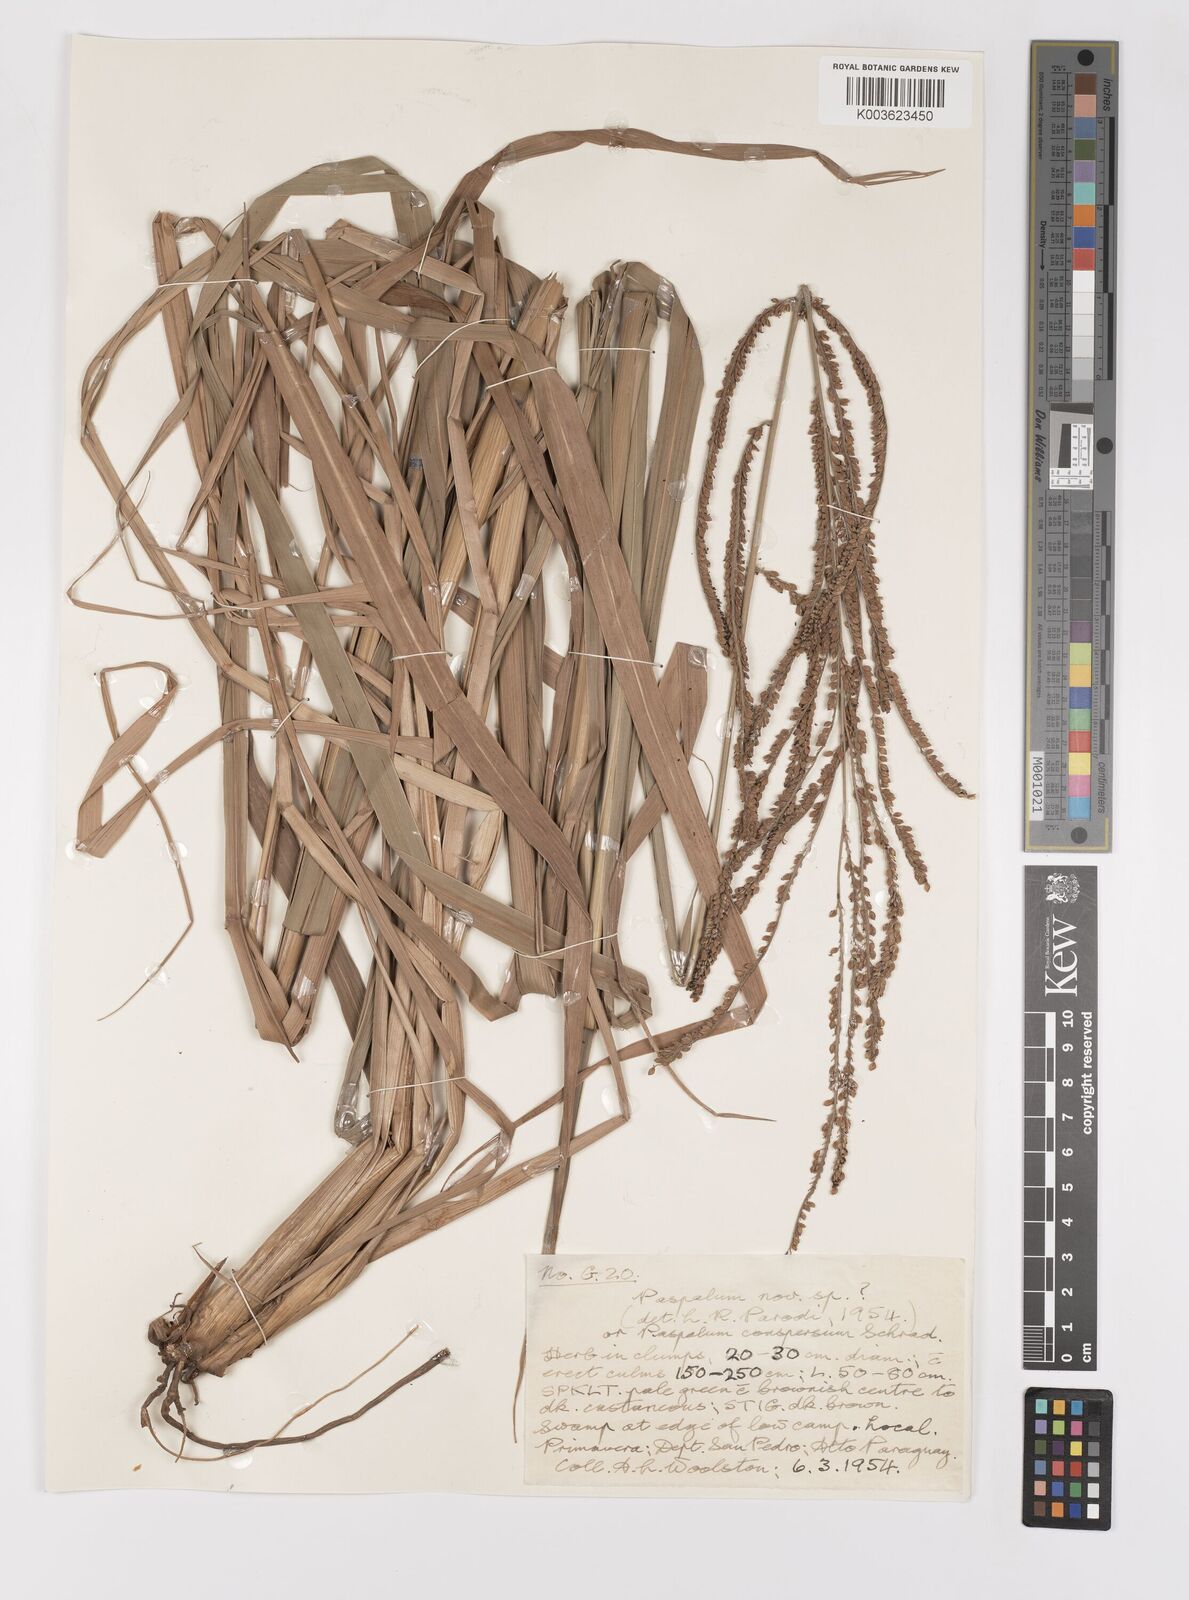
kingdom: Plantae
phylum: Tracheophyta
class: Liliopsida
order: Poales
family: Poaceae
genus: Paspalum
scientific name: Paspalum conspersum
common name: Scattered paspalum
